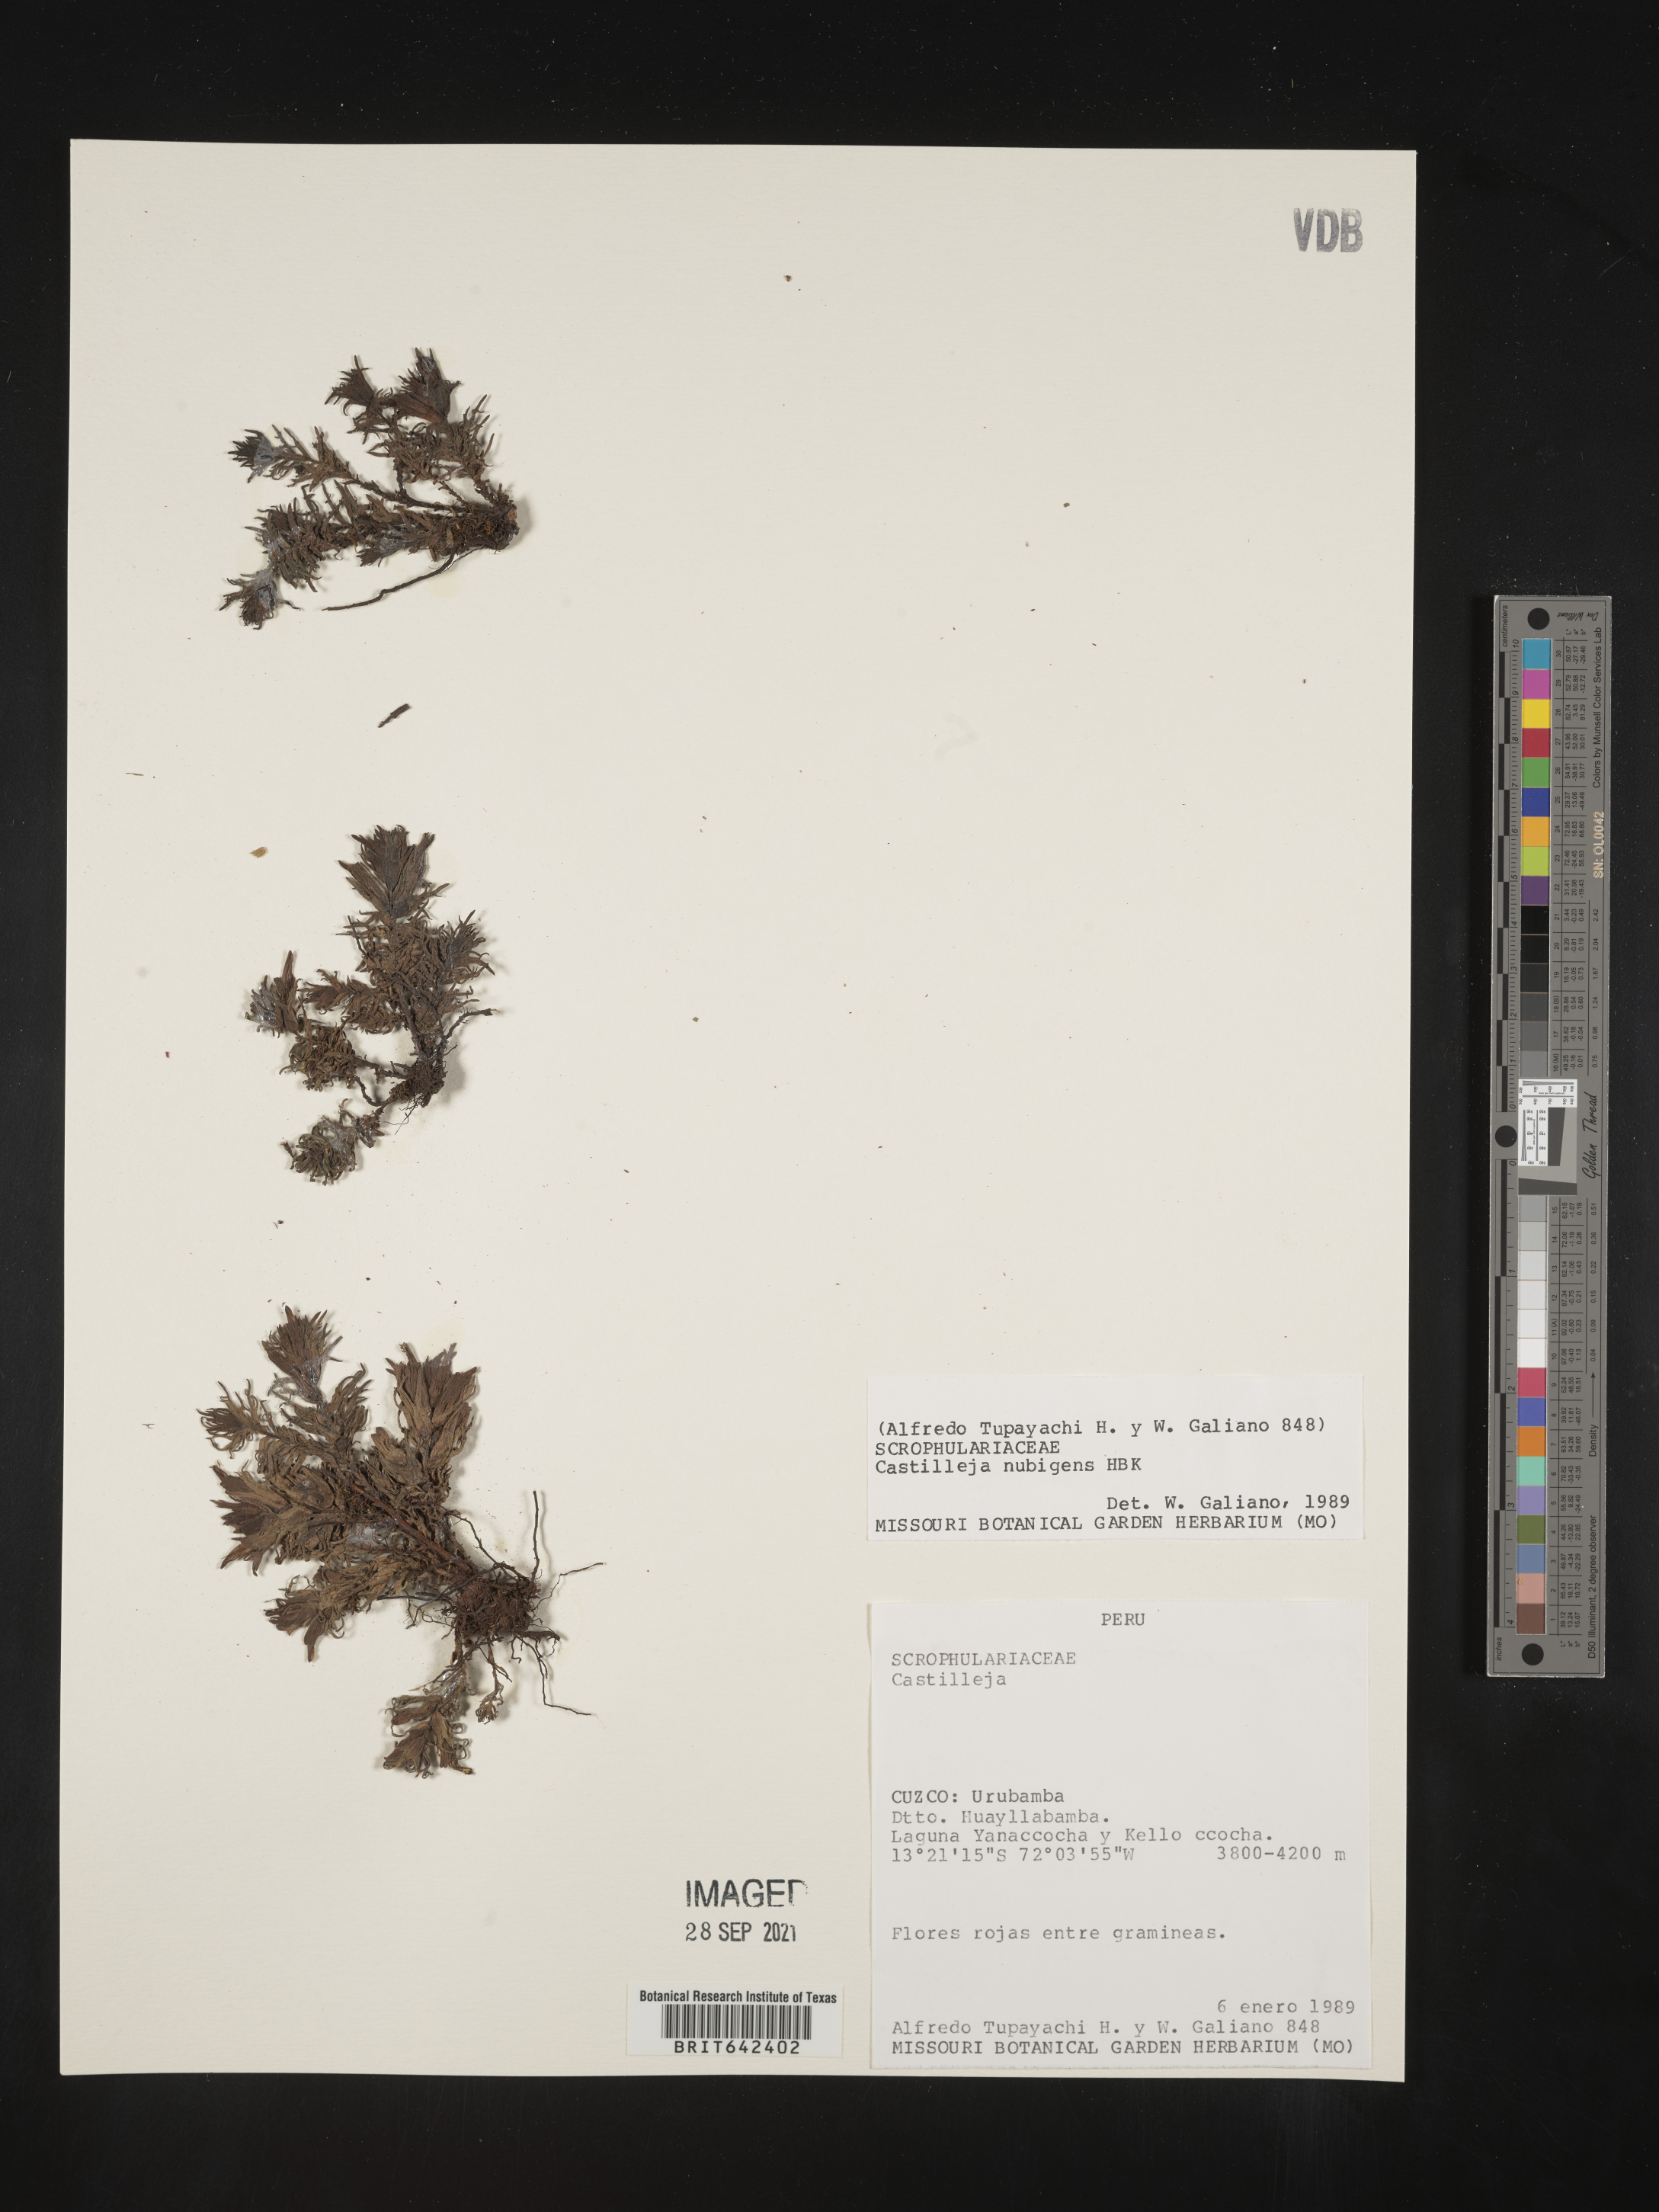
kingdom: Plantae
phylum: Tracheophyta
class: Magnoliopsida
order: Lamiales
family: Orobanchaceae
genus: Castilleja
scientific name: Castilleja
